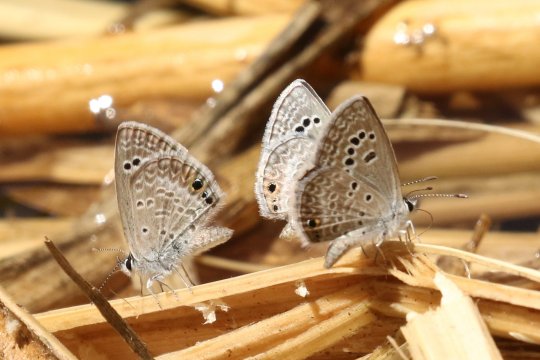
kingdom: Animalia
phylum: Arthropoda
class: Insecta
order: Lepidoptera
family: Lycaenidae
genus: Echinargus
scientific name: Echinargus isola
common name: Reakirt's Blue
